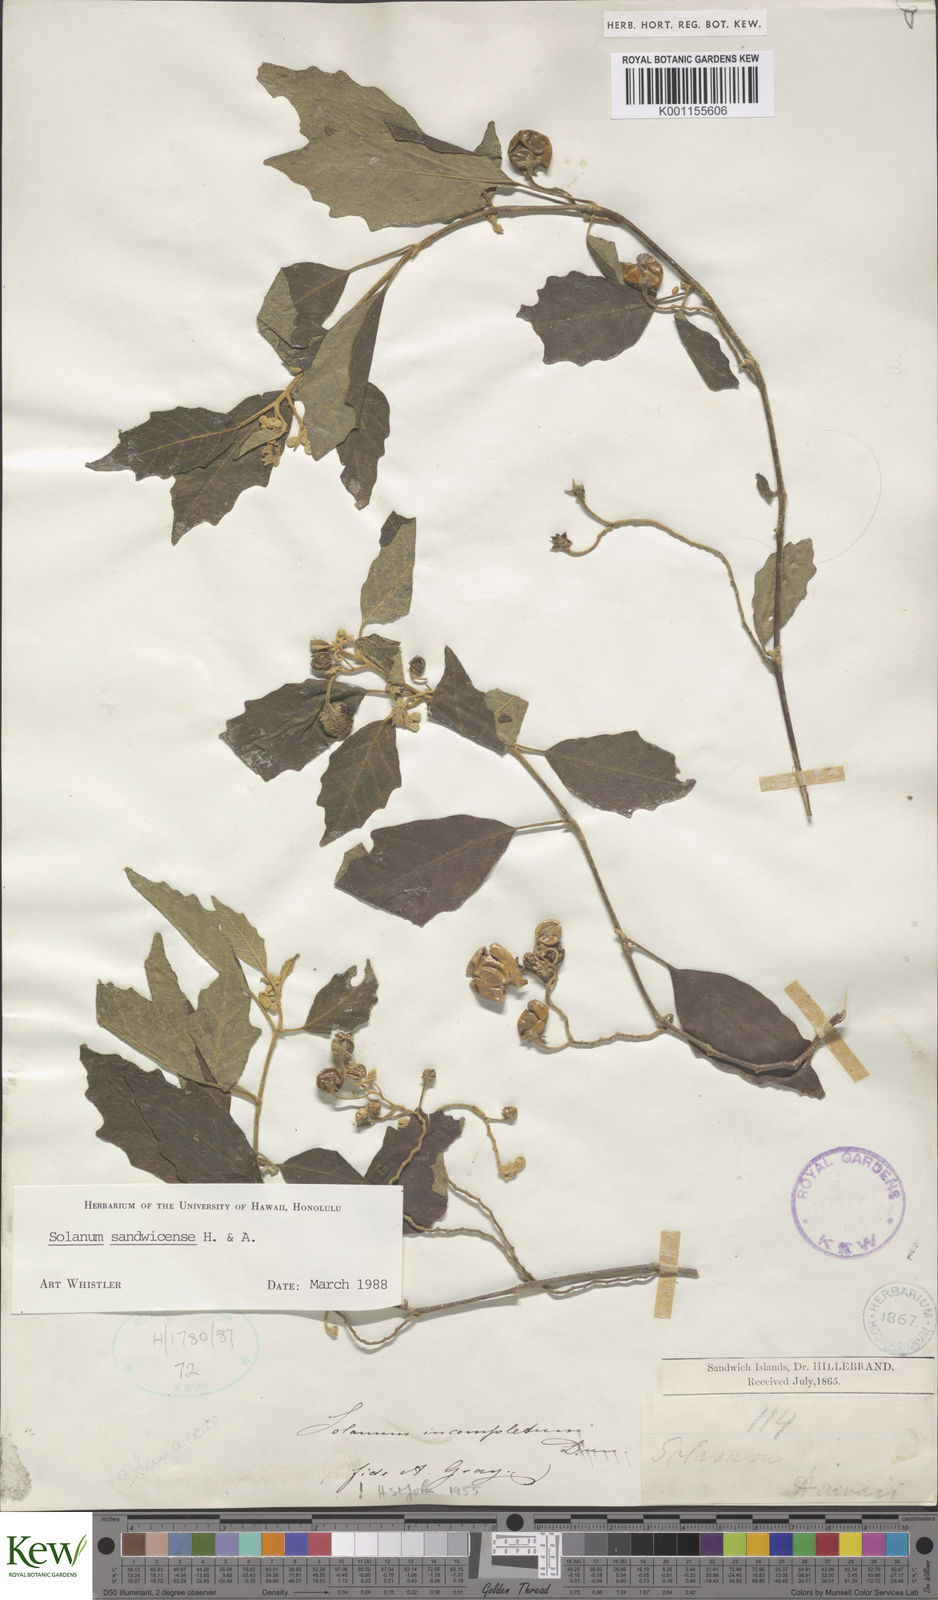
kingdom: Plantae
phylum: Tracheophyta
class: Magnoliopsida
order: Solanales
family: Solanaceae
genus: Solanum
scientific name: Solanum sandwicense
